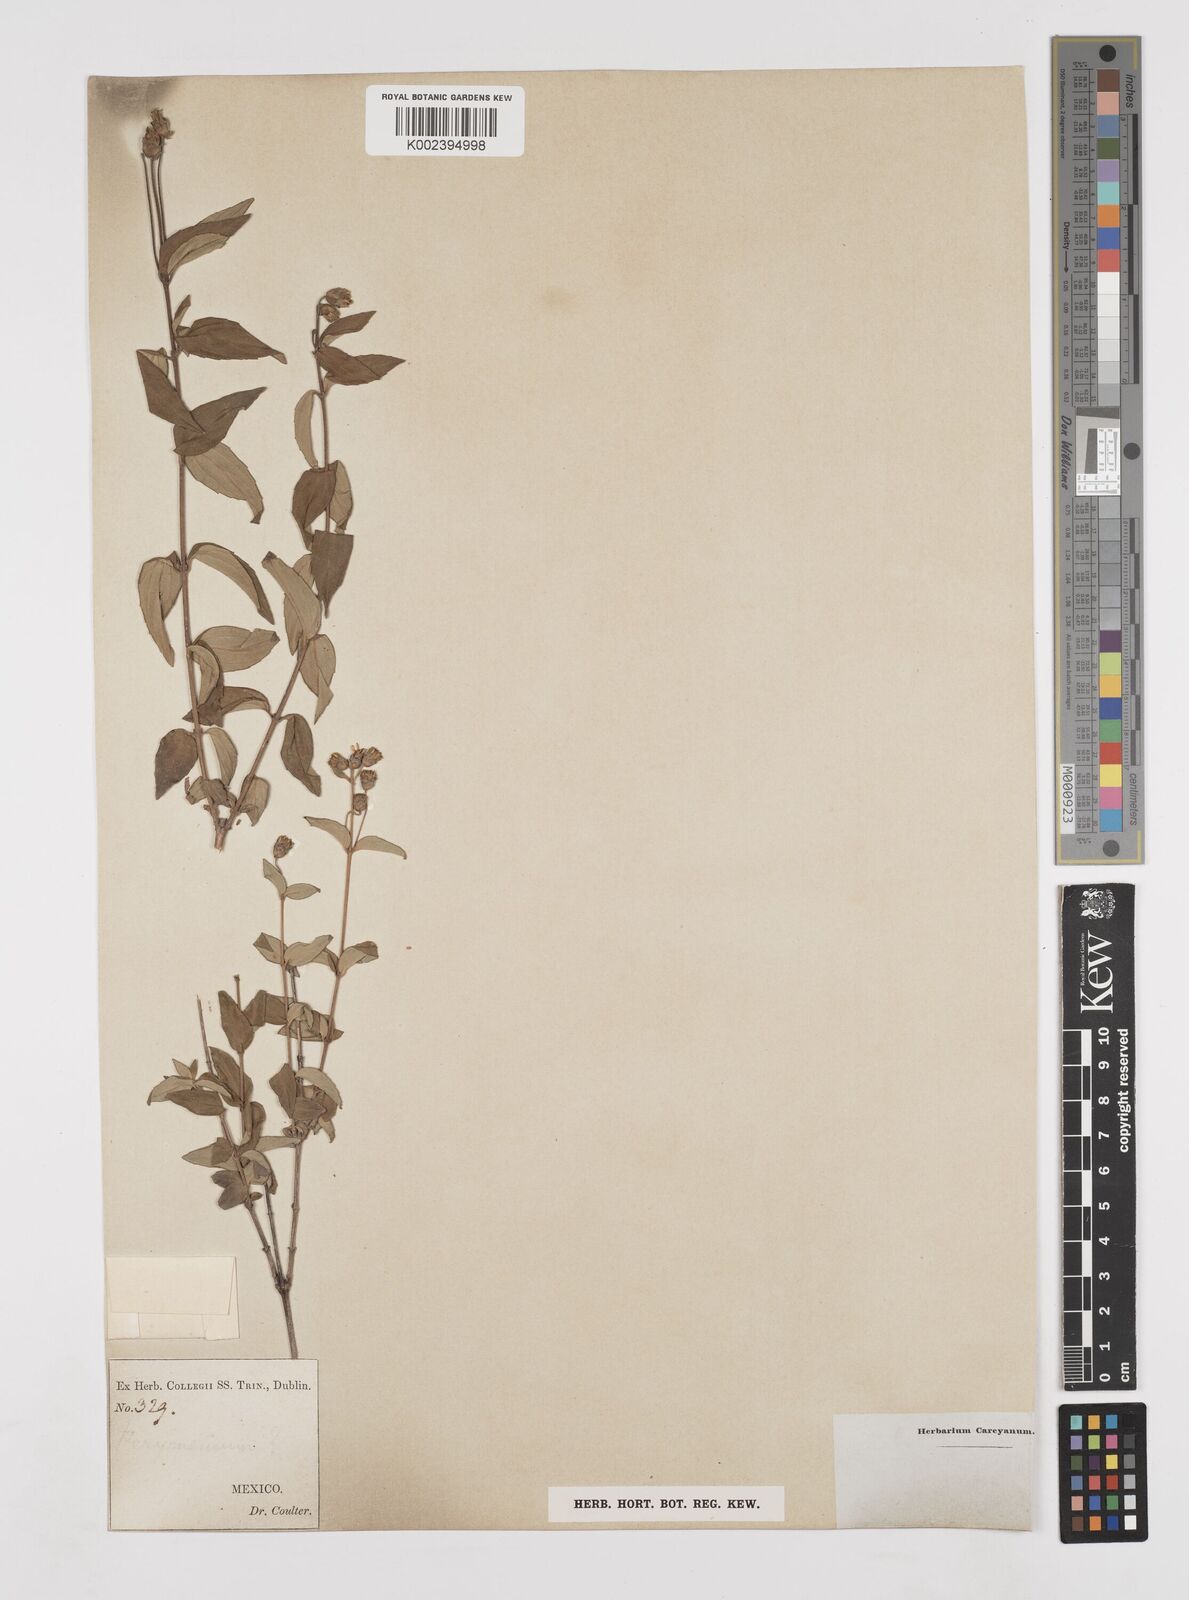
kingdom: Plantae
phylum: Tracheophyta
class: Magnoliopsida
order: Asterales
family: Asteraceae
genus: Perymenium
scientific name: Perymenium berlandieri
